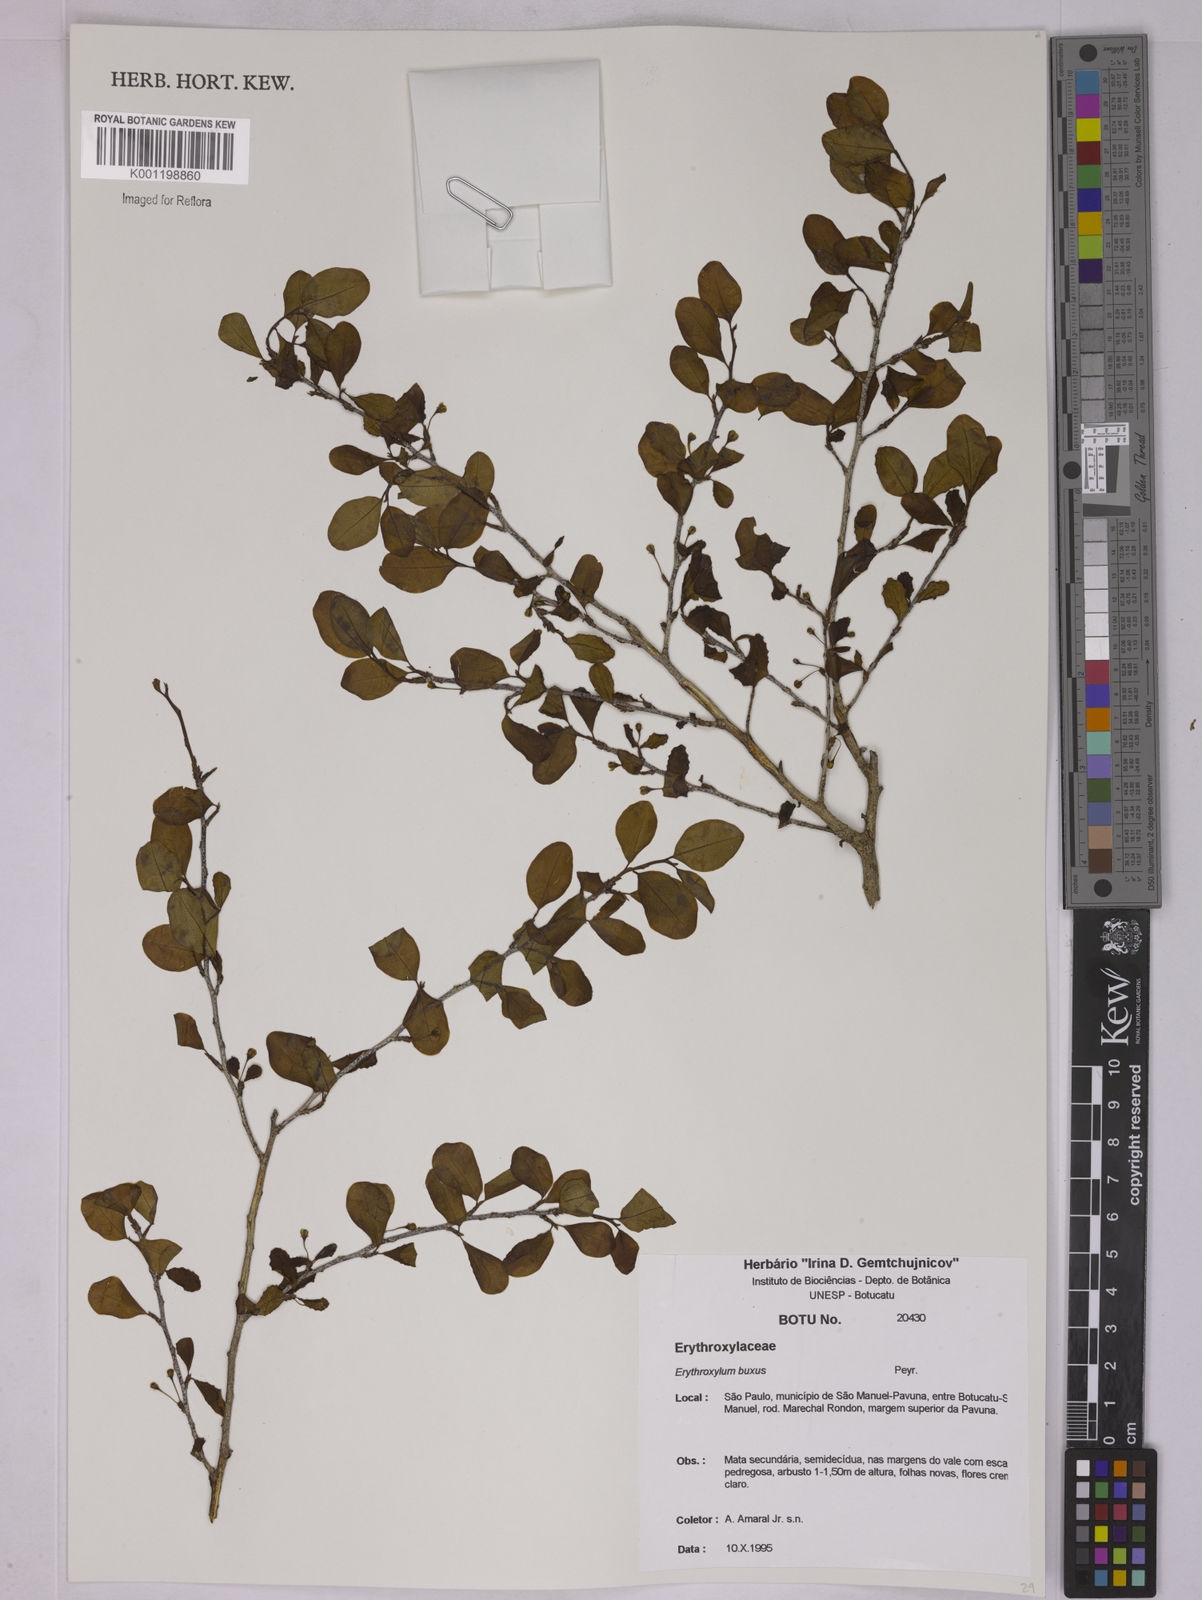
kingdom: Plantae
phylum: Tracheophyta
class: Magnoliopsida
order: Malpighiales
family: Erythroxylaceae
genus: Erythroxylum
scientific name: Erythroxylum buxus
